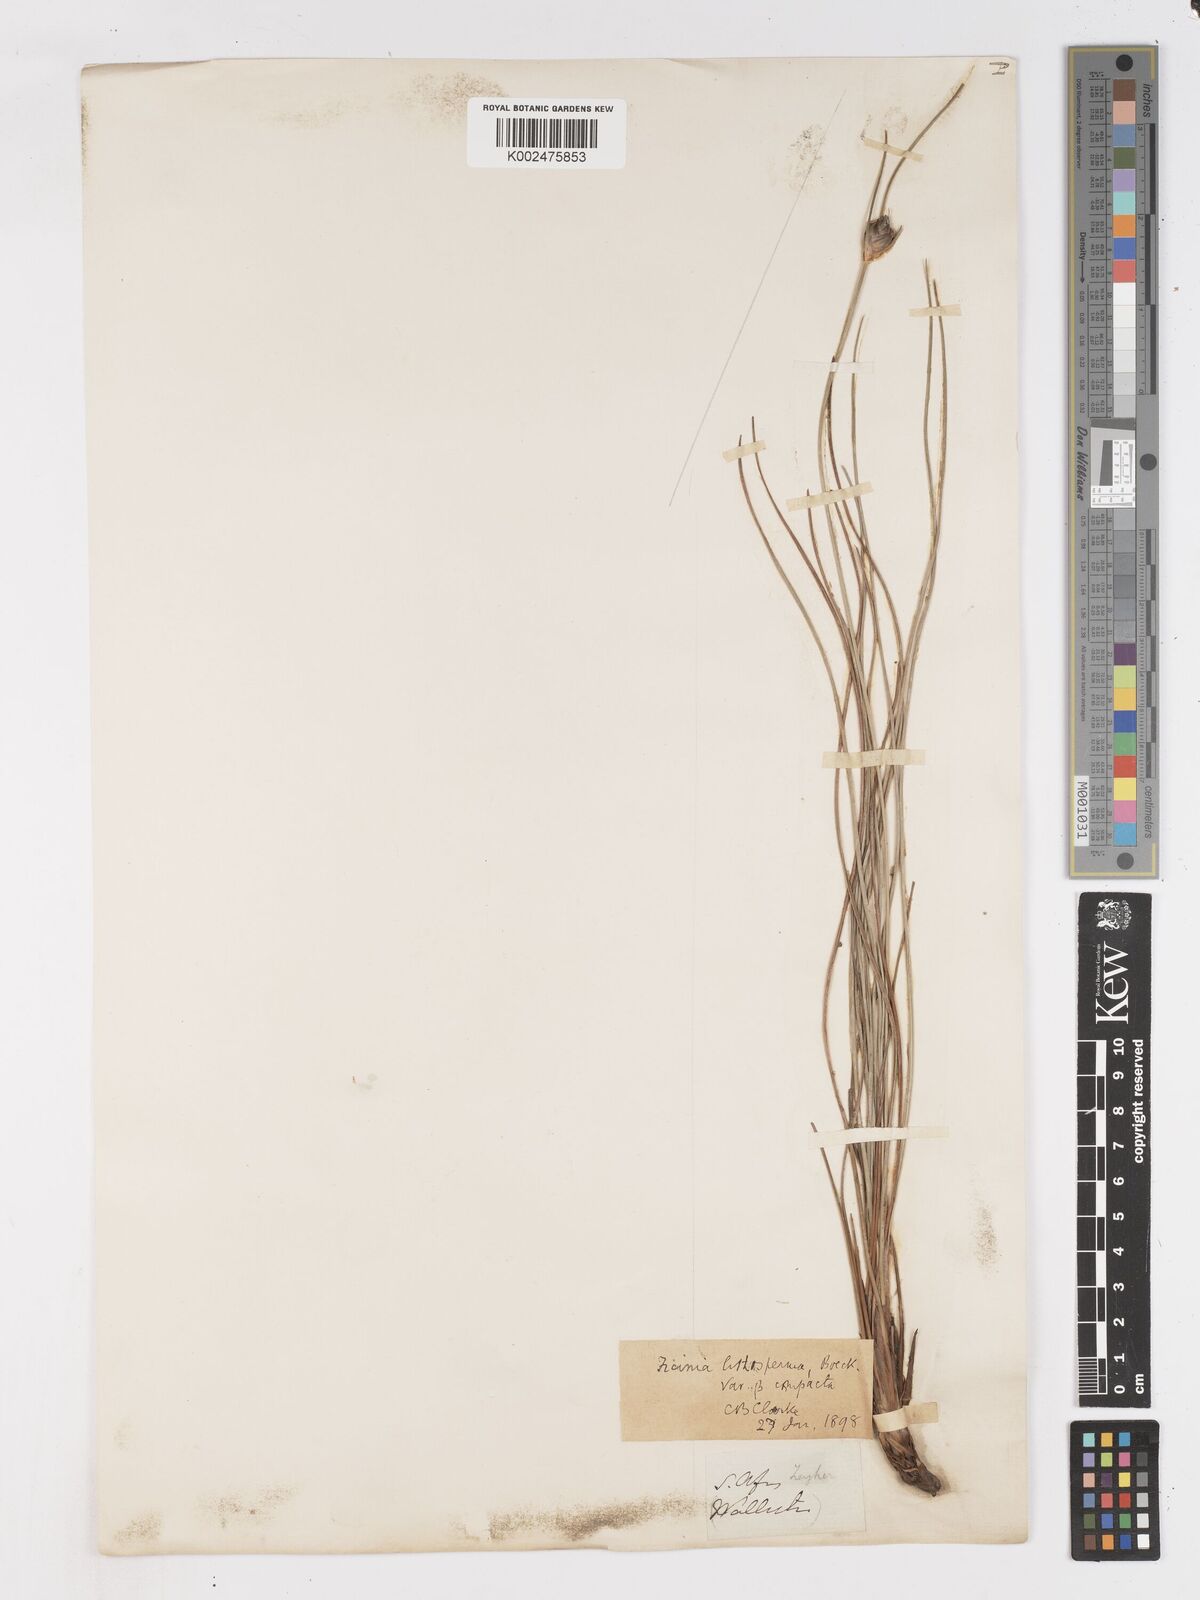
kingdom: Plantae
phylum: Tracheophyta
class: Liliopsida
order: Poales
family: Cyperaceae
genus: Ficinia
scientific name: Ficinia cedarbergensis
